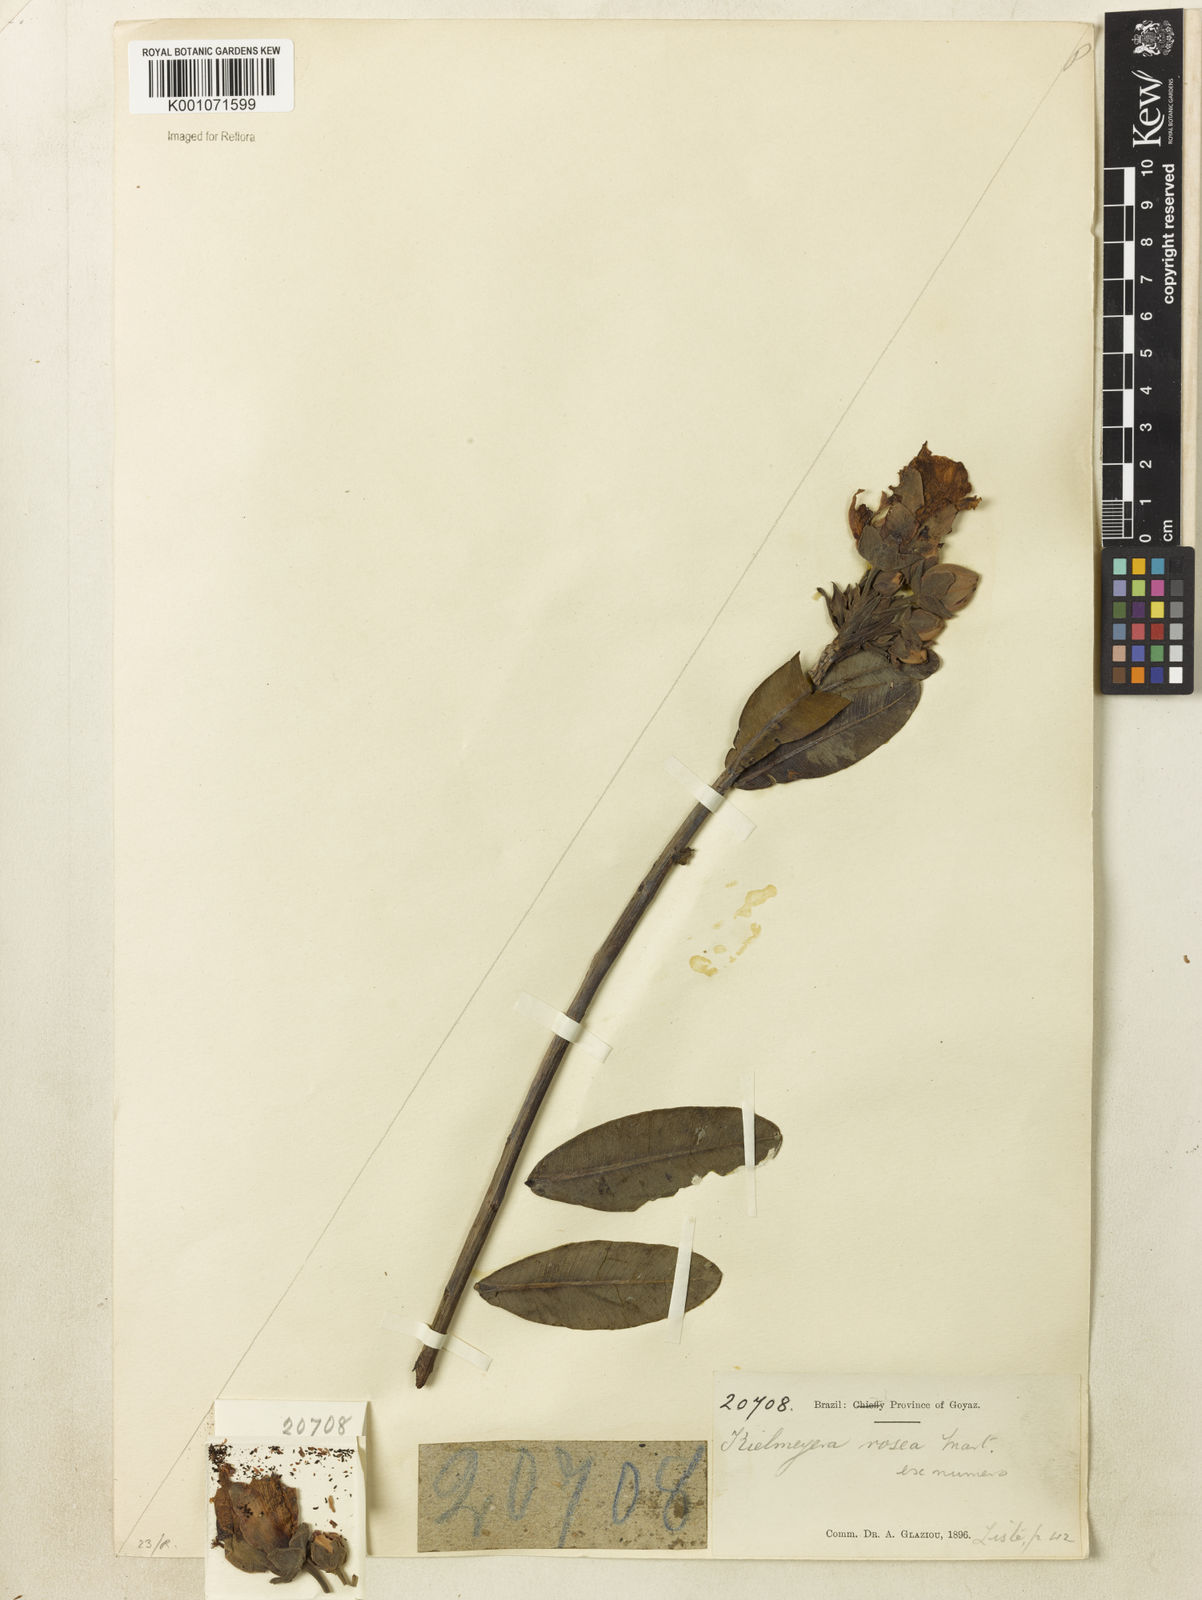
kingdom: Plantae
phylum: Tracheophyta
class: Magnoliopsida
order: Malpighiales
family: Calophyllaceae
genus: Kielmeyera
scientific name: Kielmeyera rubriflora
